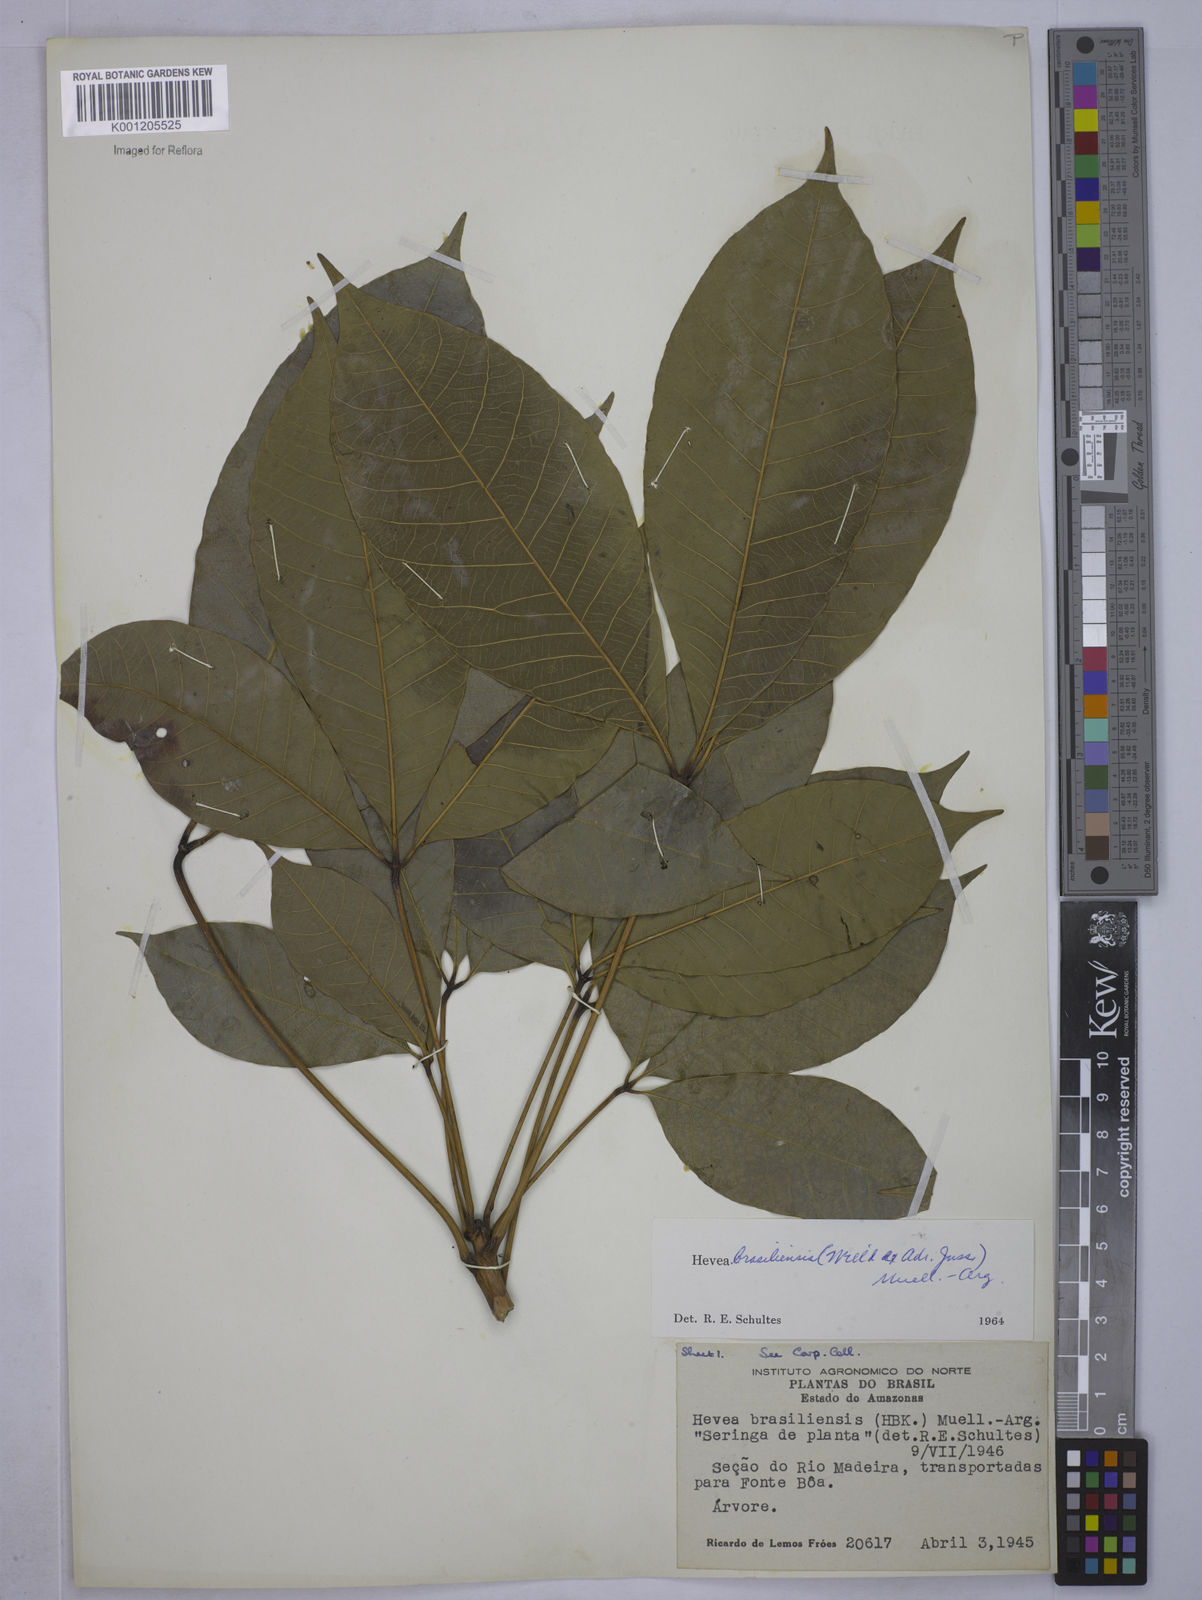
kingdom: Plantae
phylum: Tracheophyta
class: Magnoliopsida
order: Malpighiales
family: Euphorbiaceae
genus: Hevea
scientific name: Hevea
